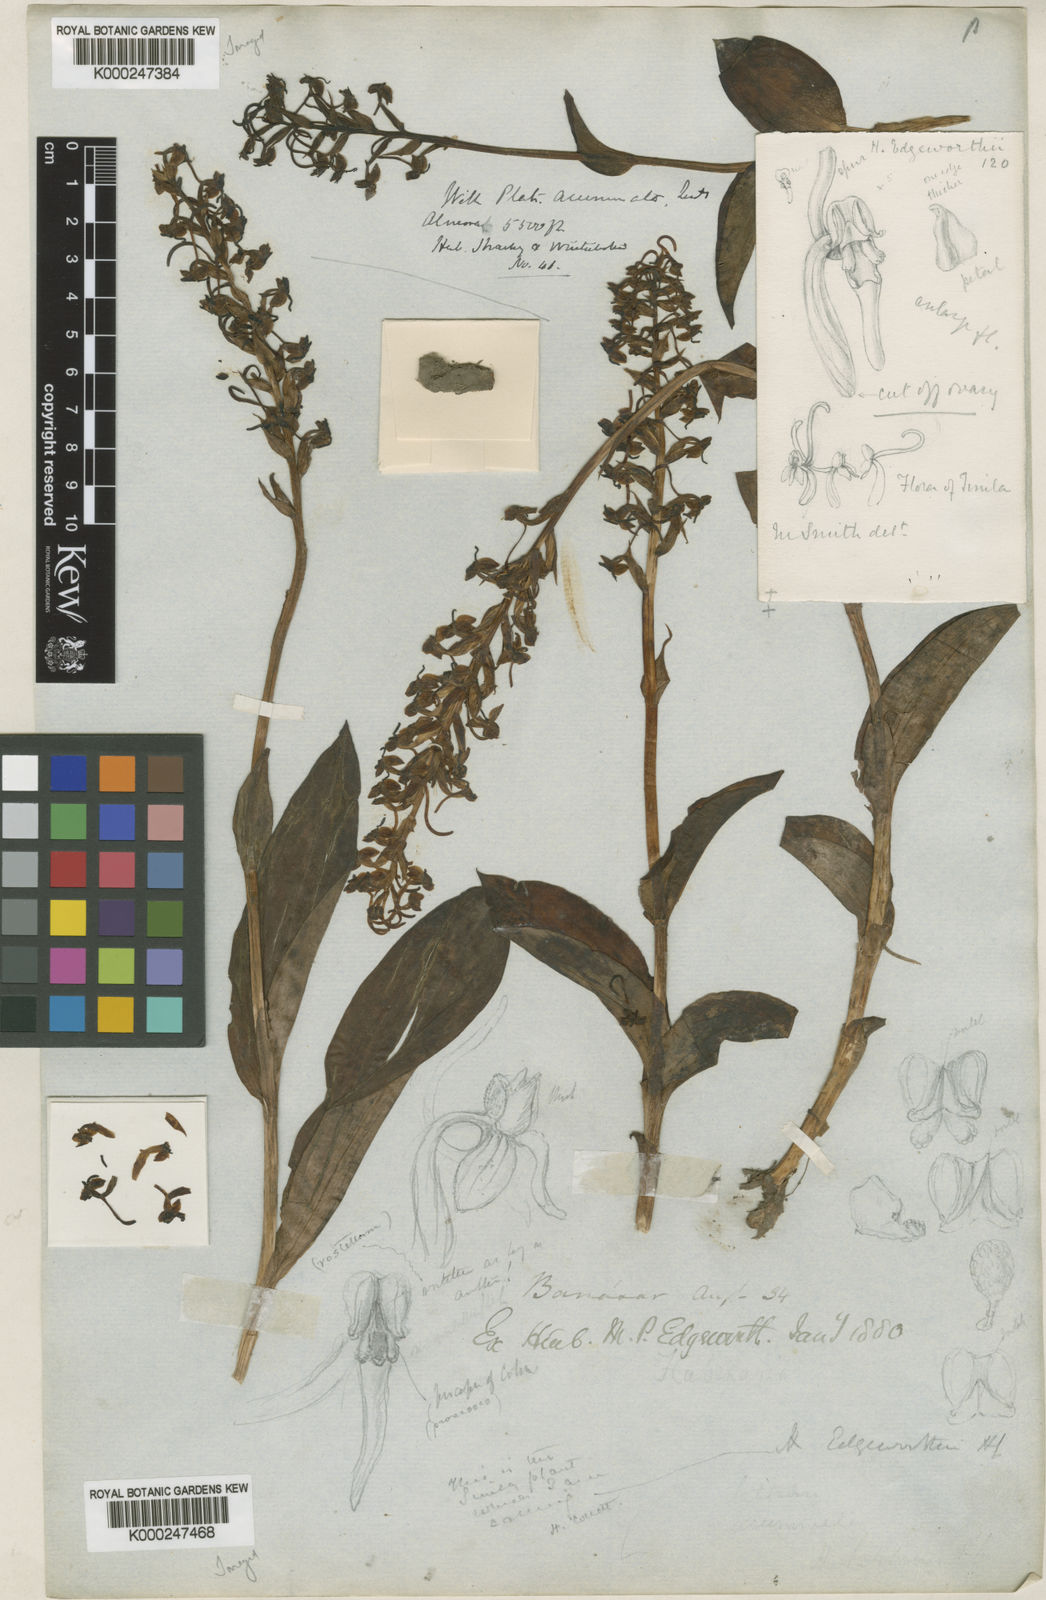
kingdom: Plantae
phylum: Tracheophyta
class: Liliopsida
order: Asparagales
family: Orchidaceae
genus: Herminium
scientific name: Herminium edgeworthii
